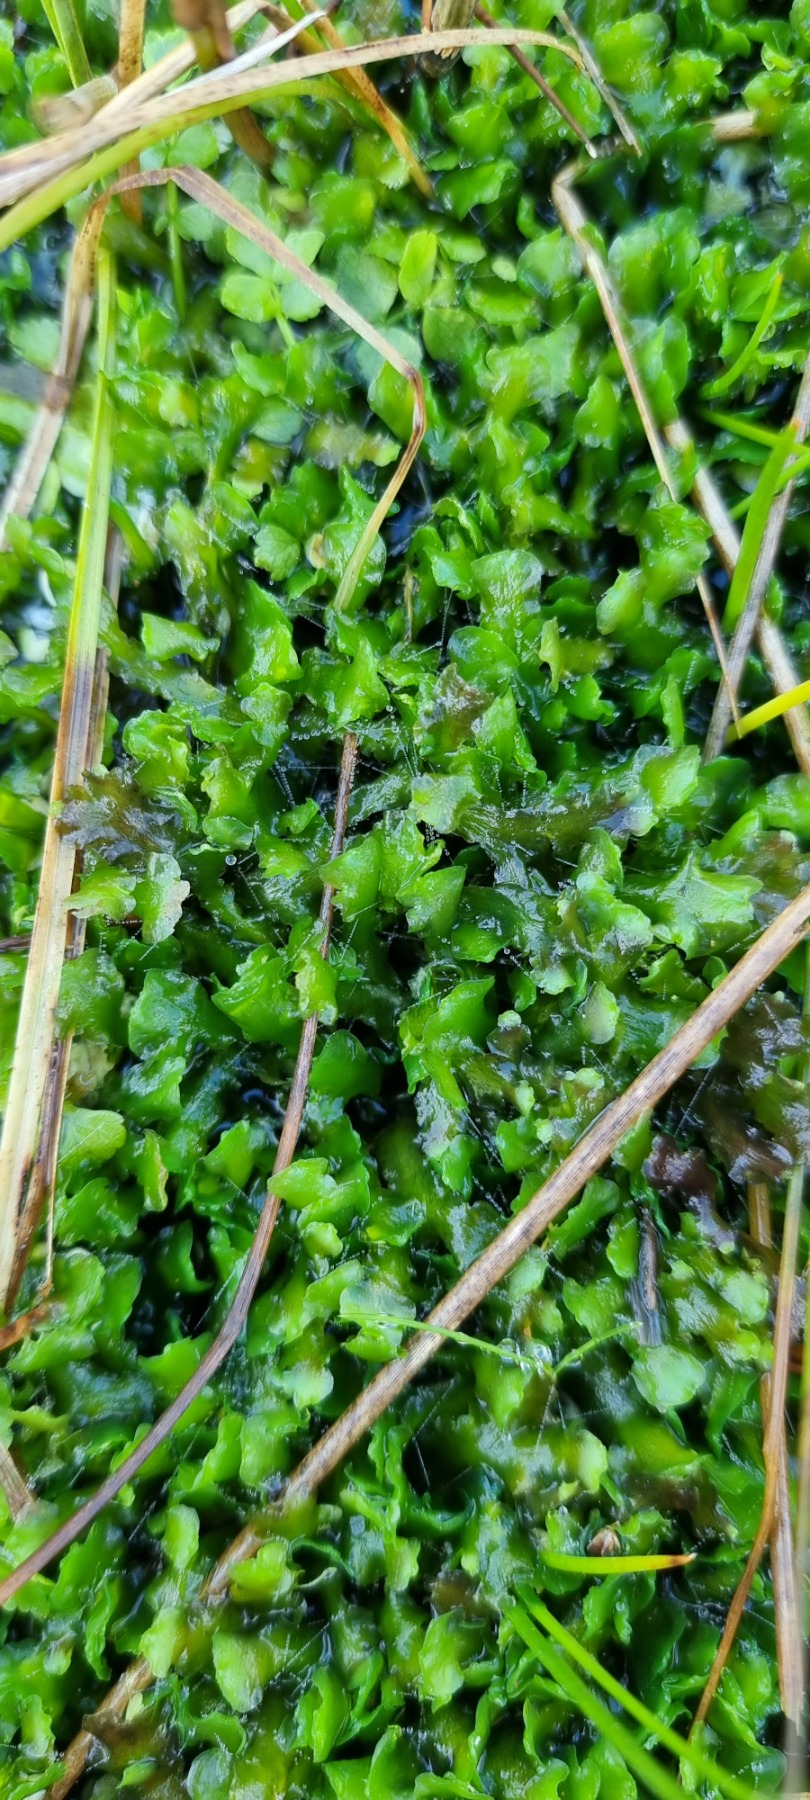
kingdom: Plantae
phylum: Marchantiophyta
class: Jungermanniopsida
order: Pelliales
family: Pelliaceae
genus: Apopellia
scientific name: Apopellia endiviifolia
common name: Fliget ribbeløv
